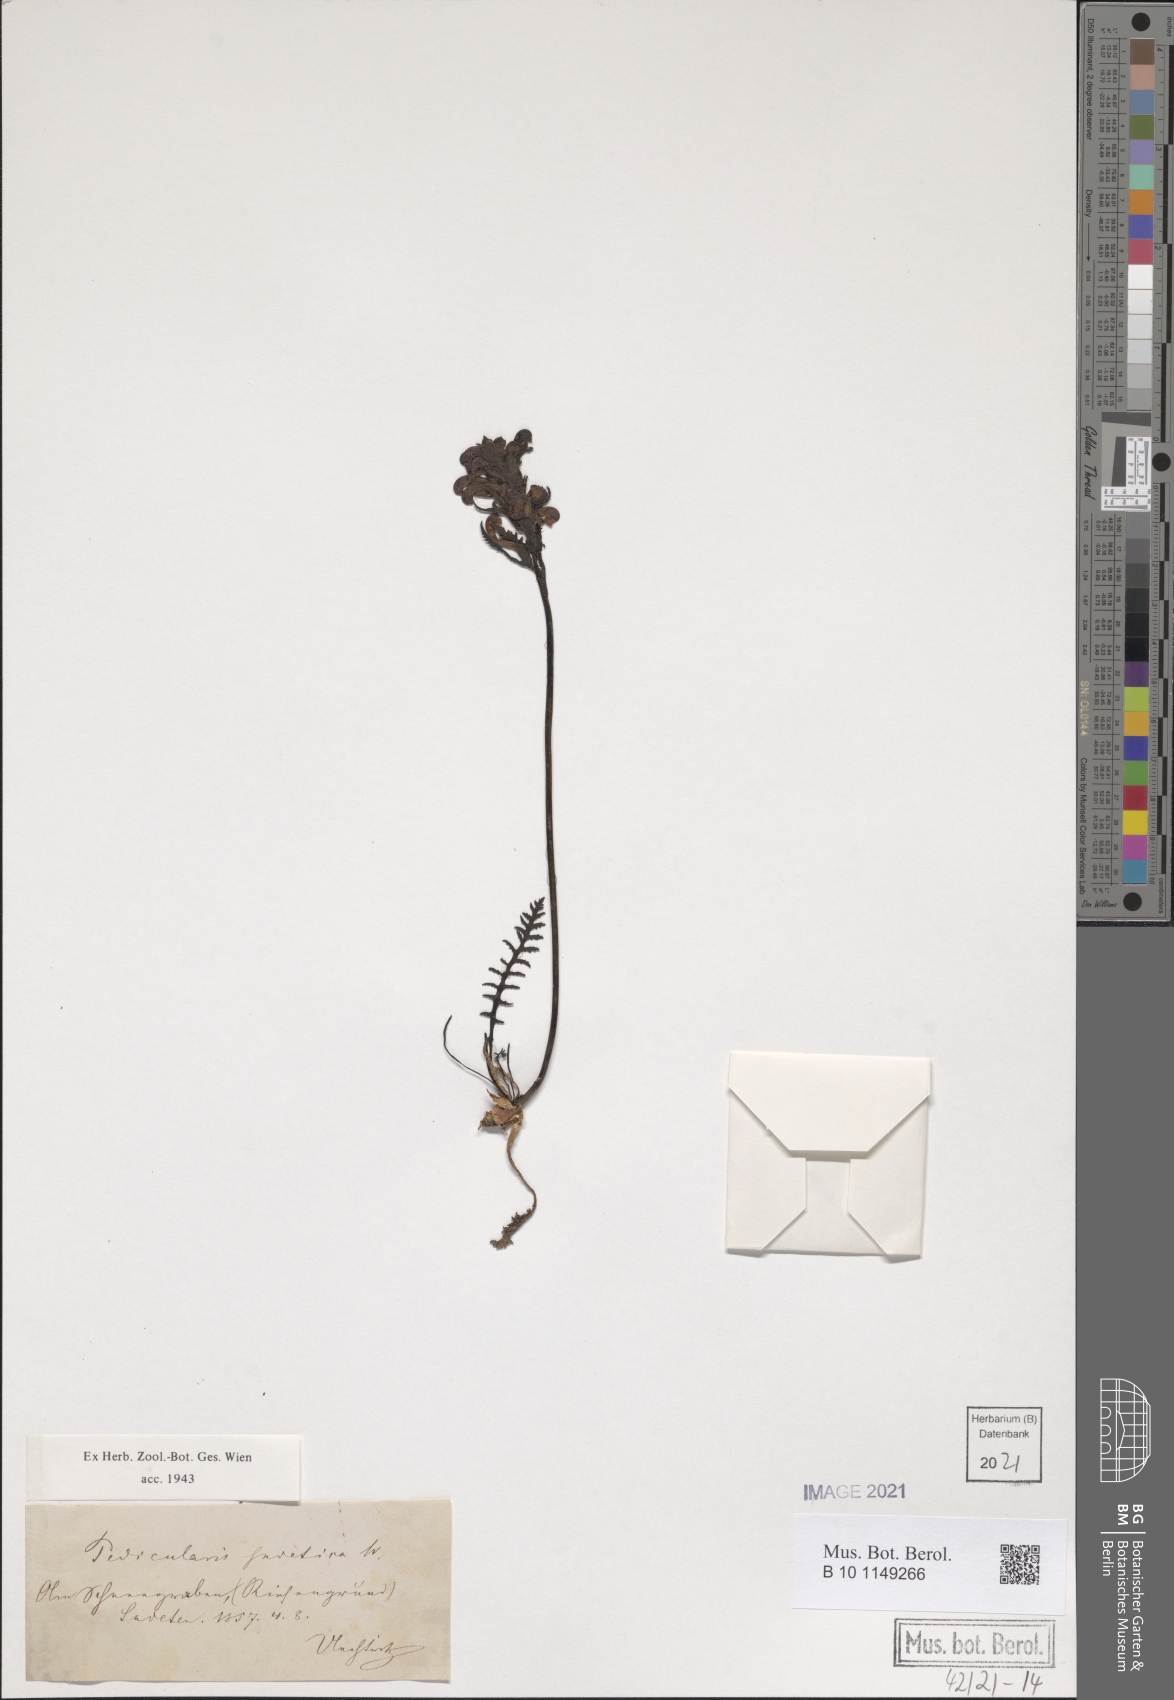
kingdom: Plantae
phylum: Tracheophyta
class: Magnoliopsida
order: Lamiales
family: Orobanchaceae
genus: Pedicularis
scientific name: Pedicularis sudetica
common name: Sudeten lousewort
